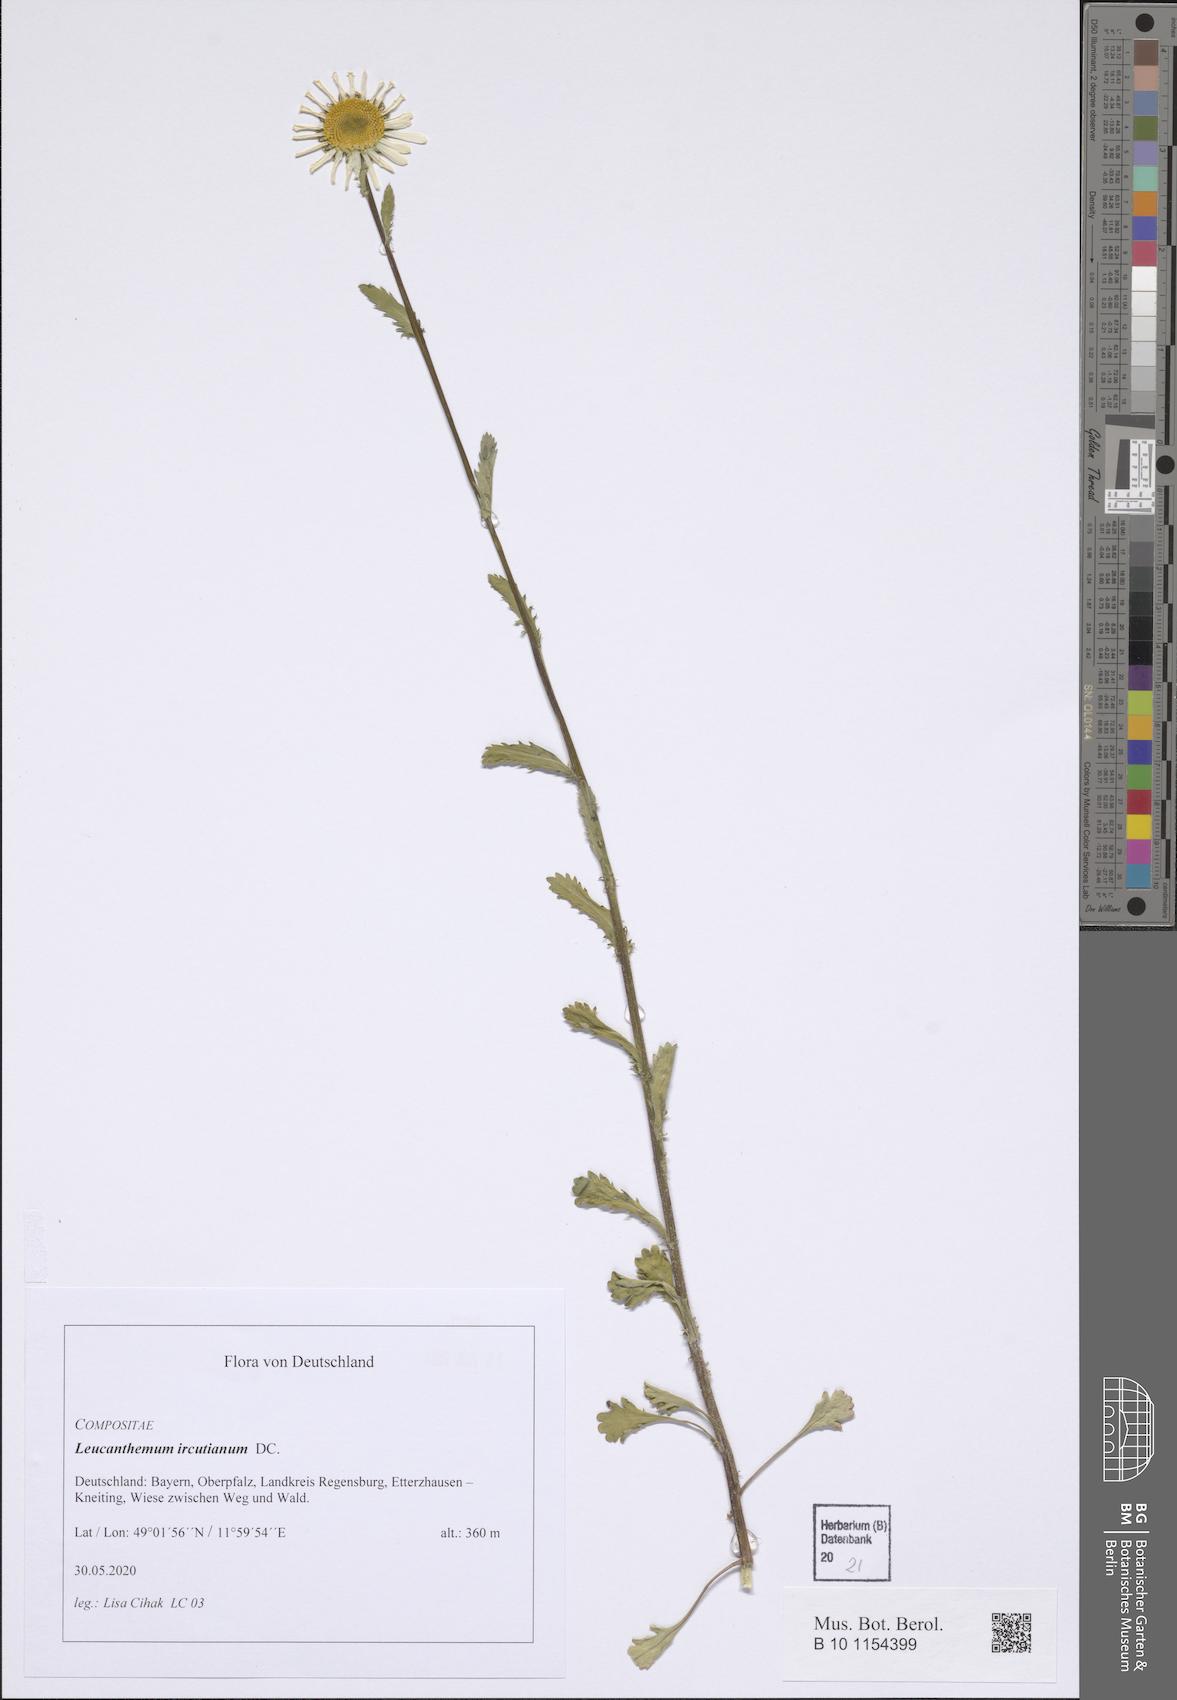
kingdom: Plantae
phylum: Tracheophyta
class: Magnoliopsida
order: Asterales
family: Asteraceae
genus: Leucanthemum
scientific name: Leucanthemum ircutianum
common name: Daisy
